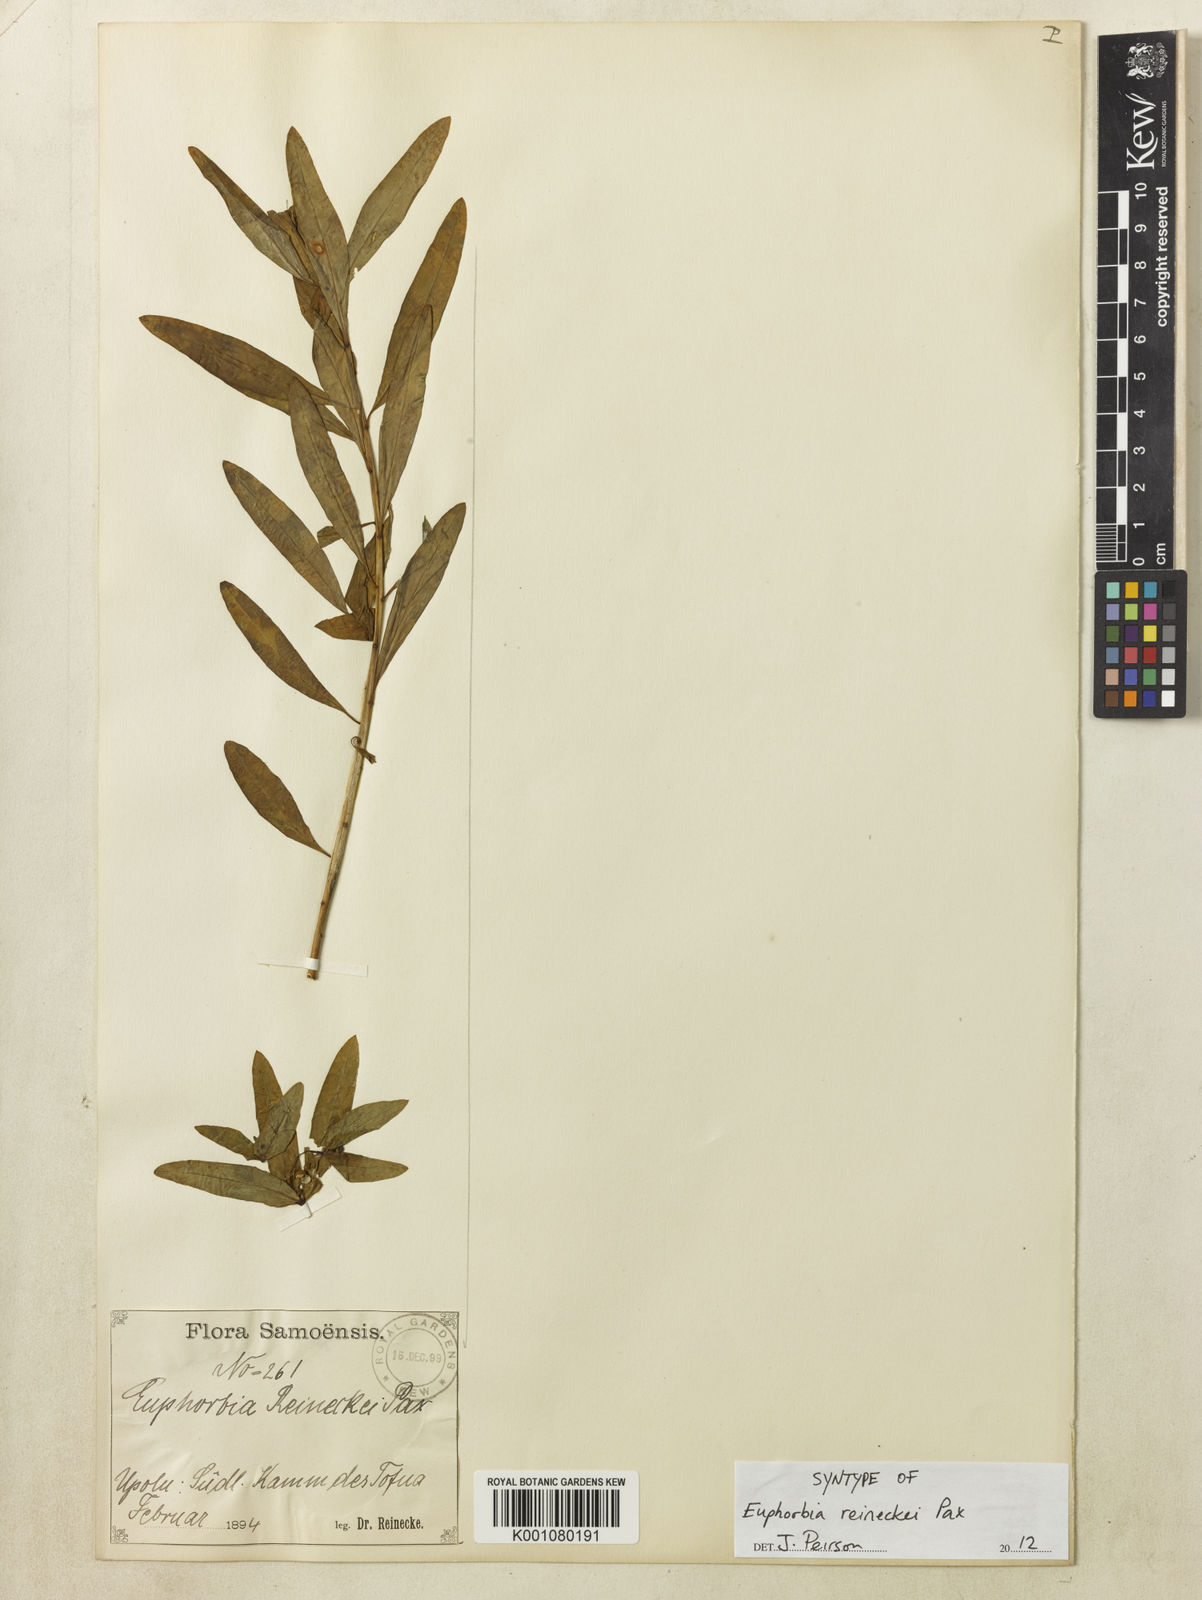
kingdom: Plantae
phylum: Tracheophyta
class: Magnoliopsida
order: Malpighiales
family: Euphorbiaceae
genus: Euphorbia
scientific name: Euphorbia reineckei
